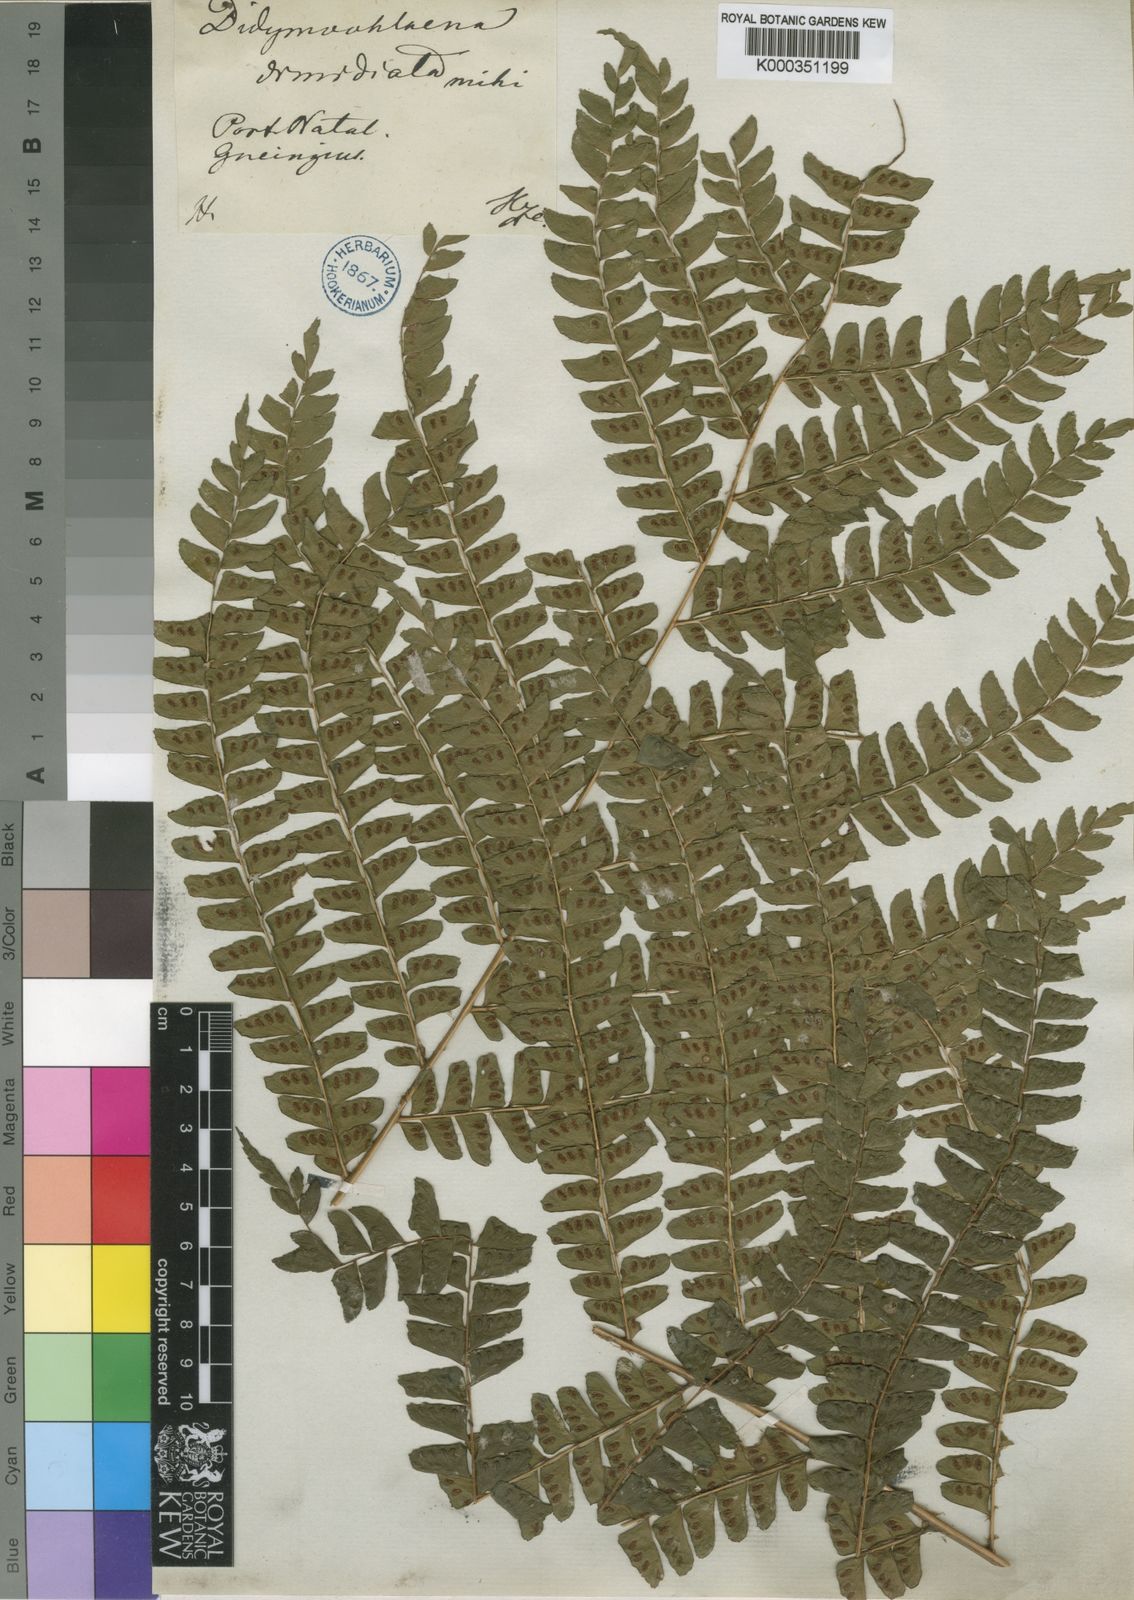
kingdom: Plantae
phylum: Tracheophyta
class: Polypodiopsida
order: Polypodiales
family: Didymochlaenaceae
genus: Didymochlaena
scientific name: Didymochlaena truncatula
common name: Mahogany fern
